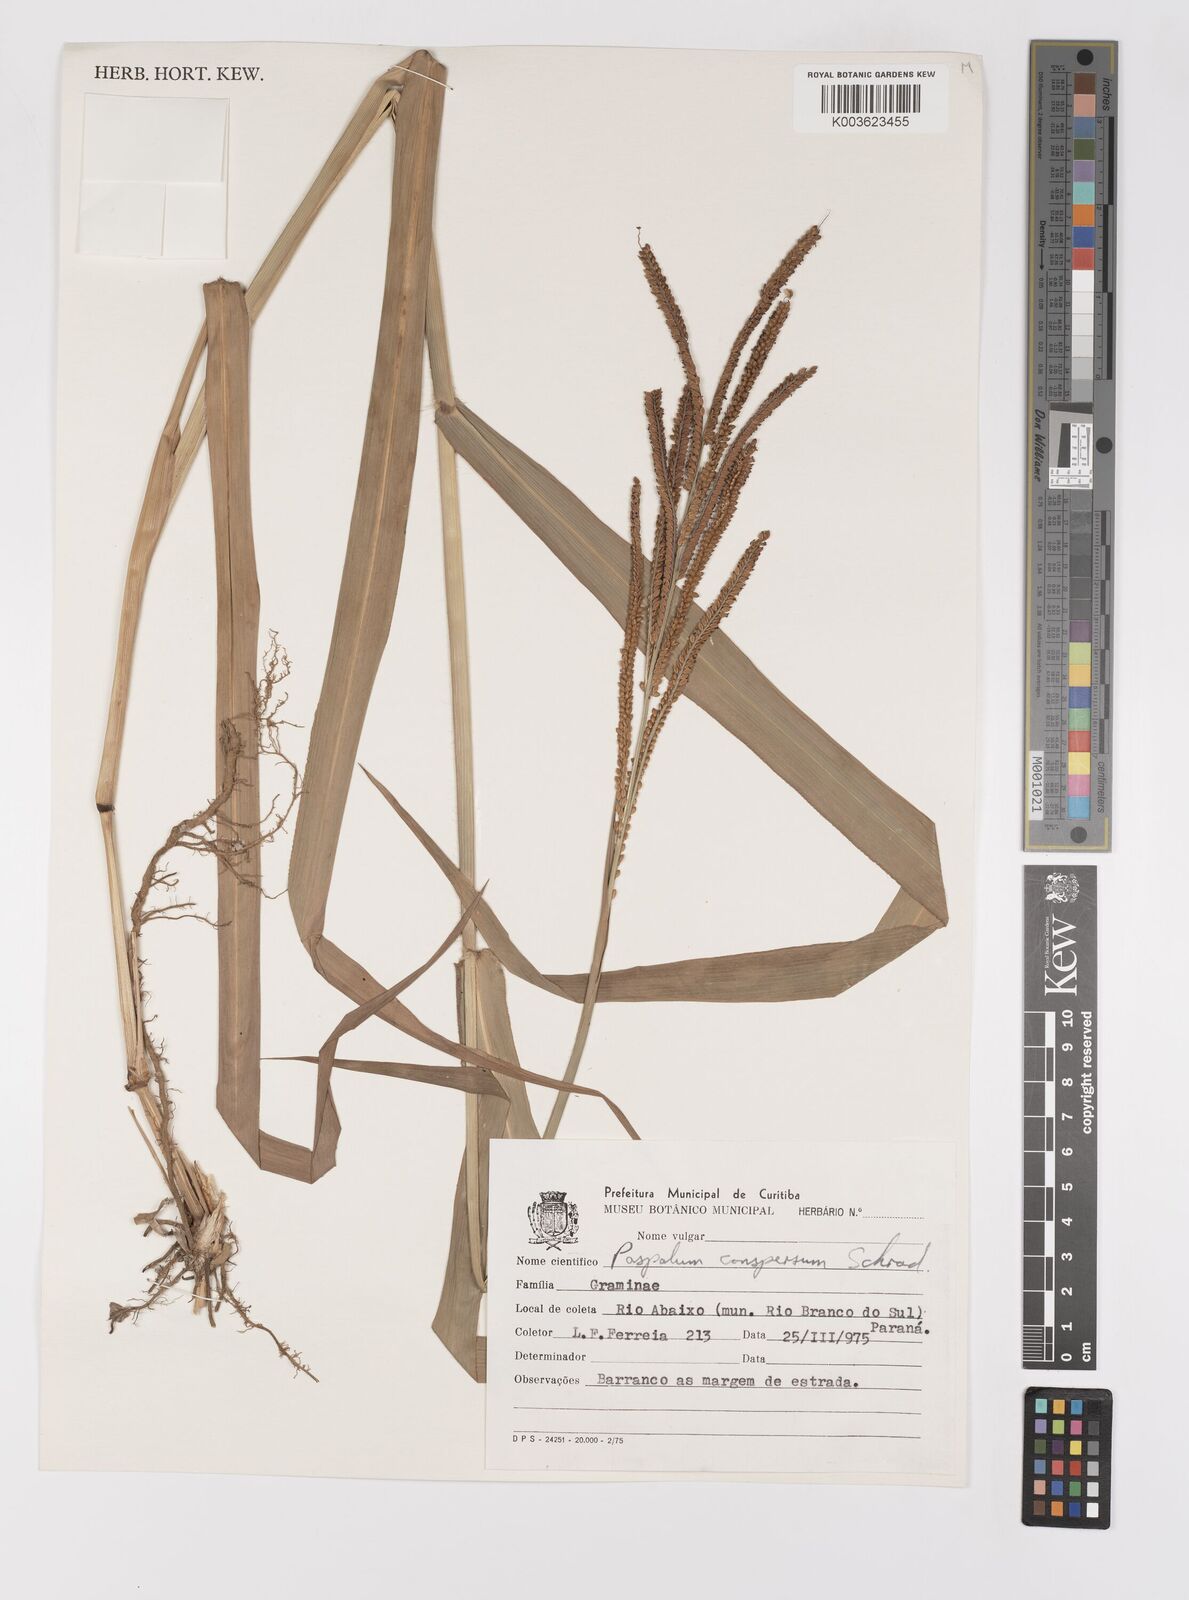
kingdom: Plantae
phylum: Tracheophyta
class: Liliopsida
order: Poales
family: Poaceae
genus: Paspalum
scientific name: Paspalum conspersum
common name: Scattered paspalum
